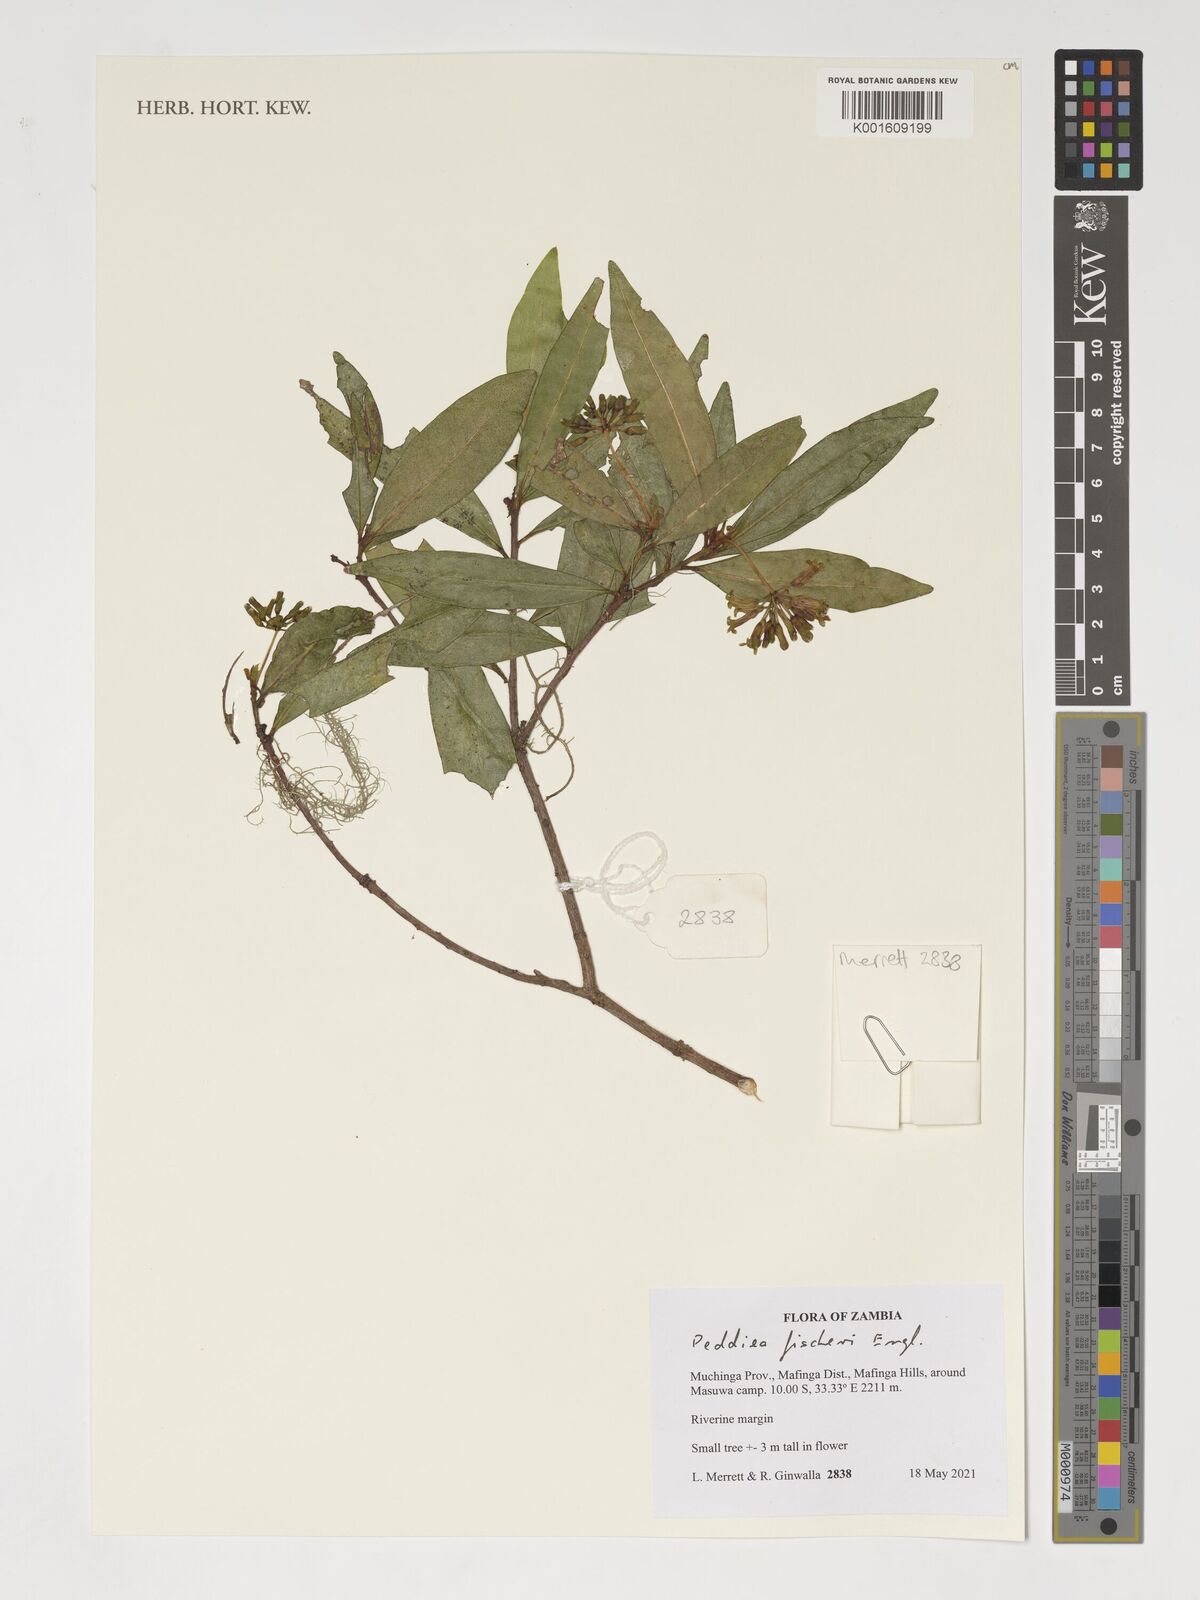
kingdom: Plantae
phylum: Tracheophyta
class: Magnoliopsida
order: Malvales
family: Thymelaeaceae
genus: Peddiea
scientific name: Peddiea fischeri
